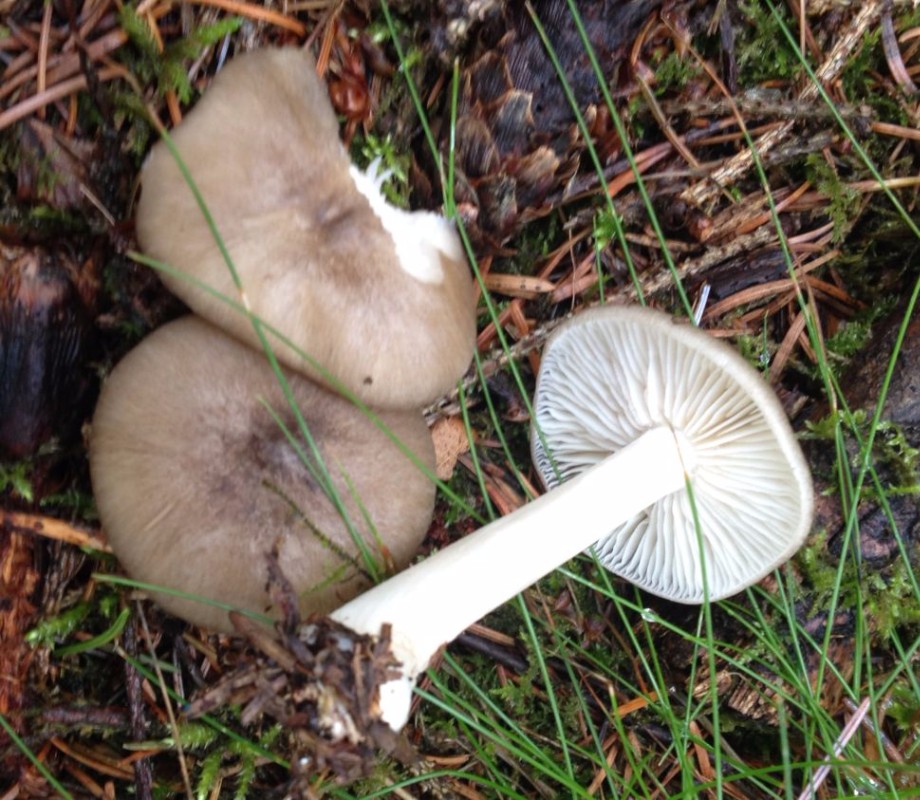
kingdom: Fungi
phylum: Basidiomycota
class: Agaricomycetes
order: Agaricales
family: Tricholomataceae
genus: Megacollybia
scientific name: Megacollybia platyphylla
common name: bredbladet væbnerhat
